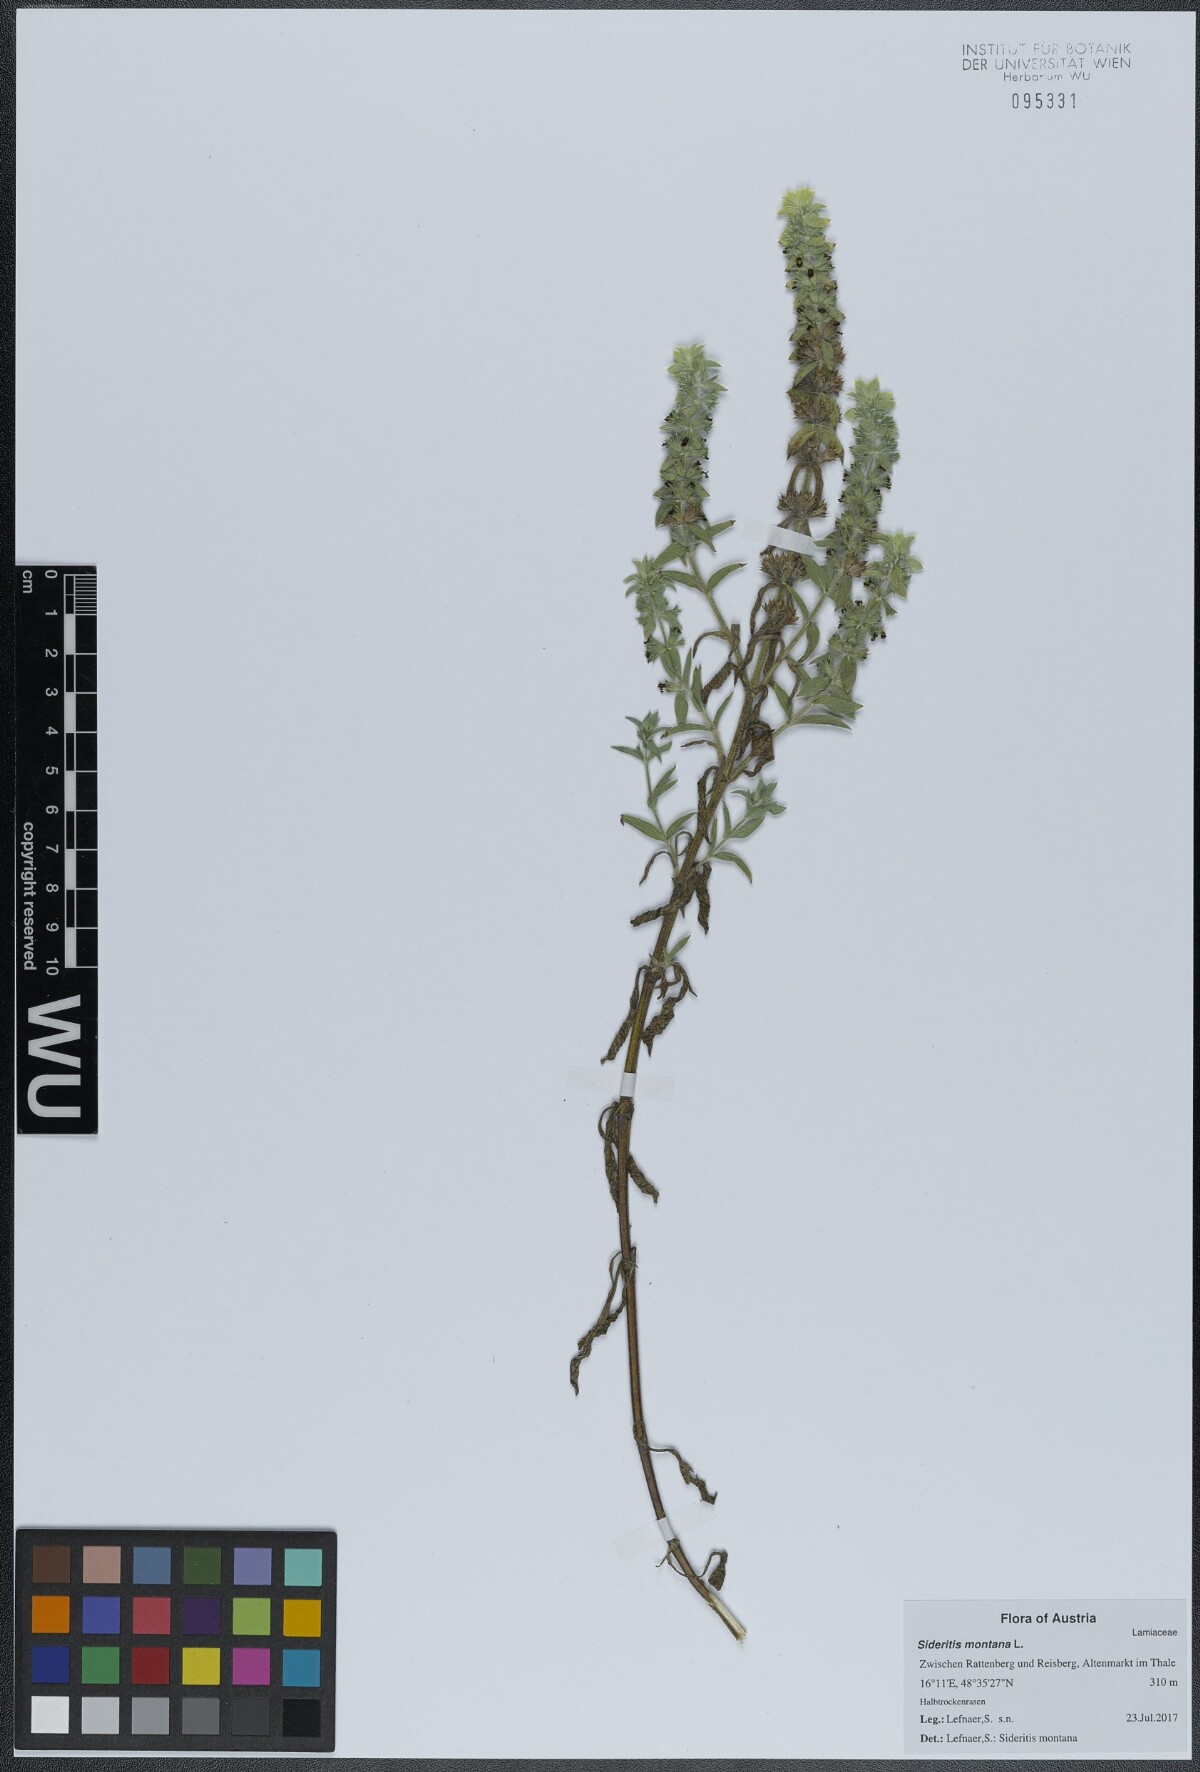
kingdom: Plantae
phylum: Tracheophyta
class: Magnoliopsida
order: Lamiales
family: Lamiaceae
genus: Sideritis
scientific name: Sideritis montana
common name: Mountain ironwort
